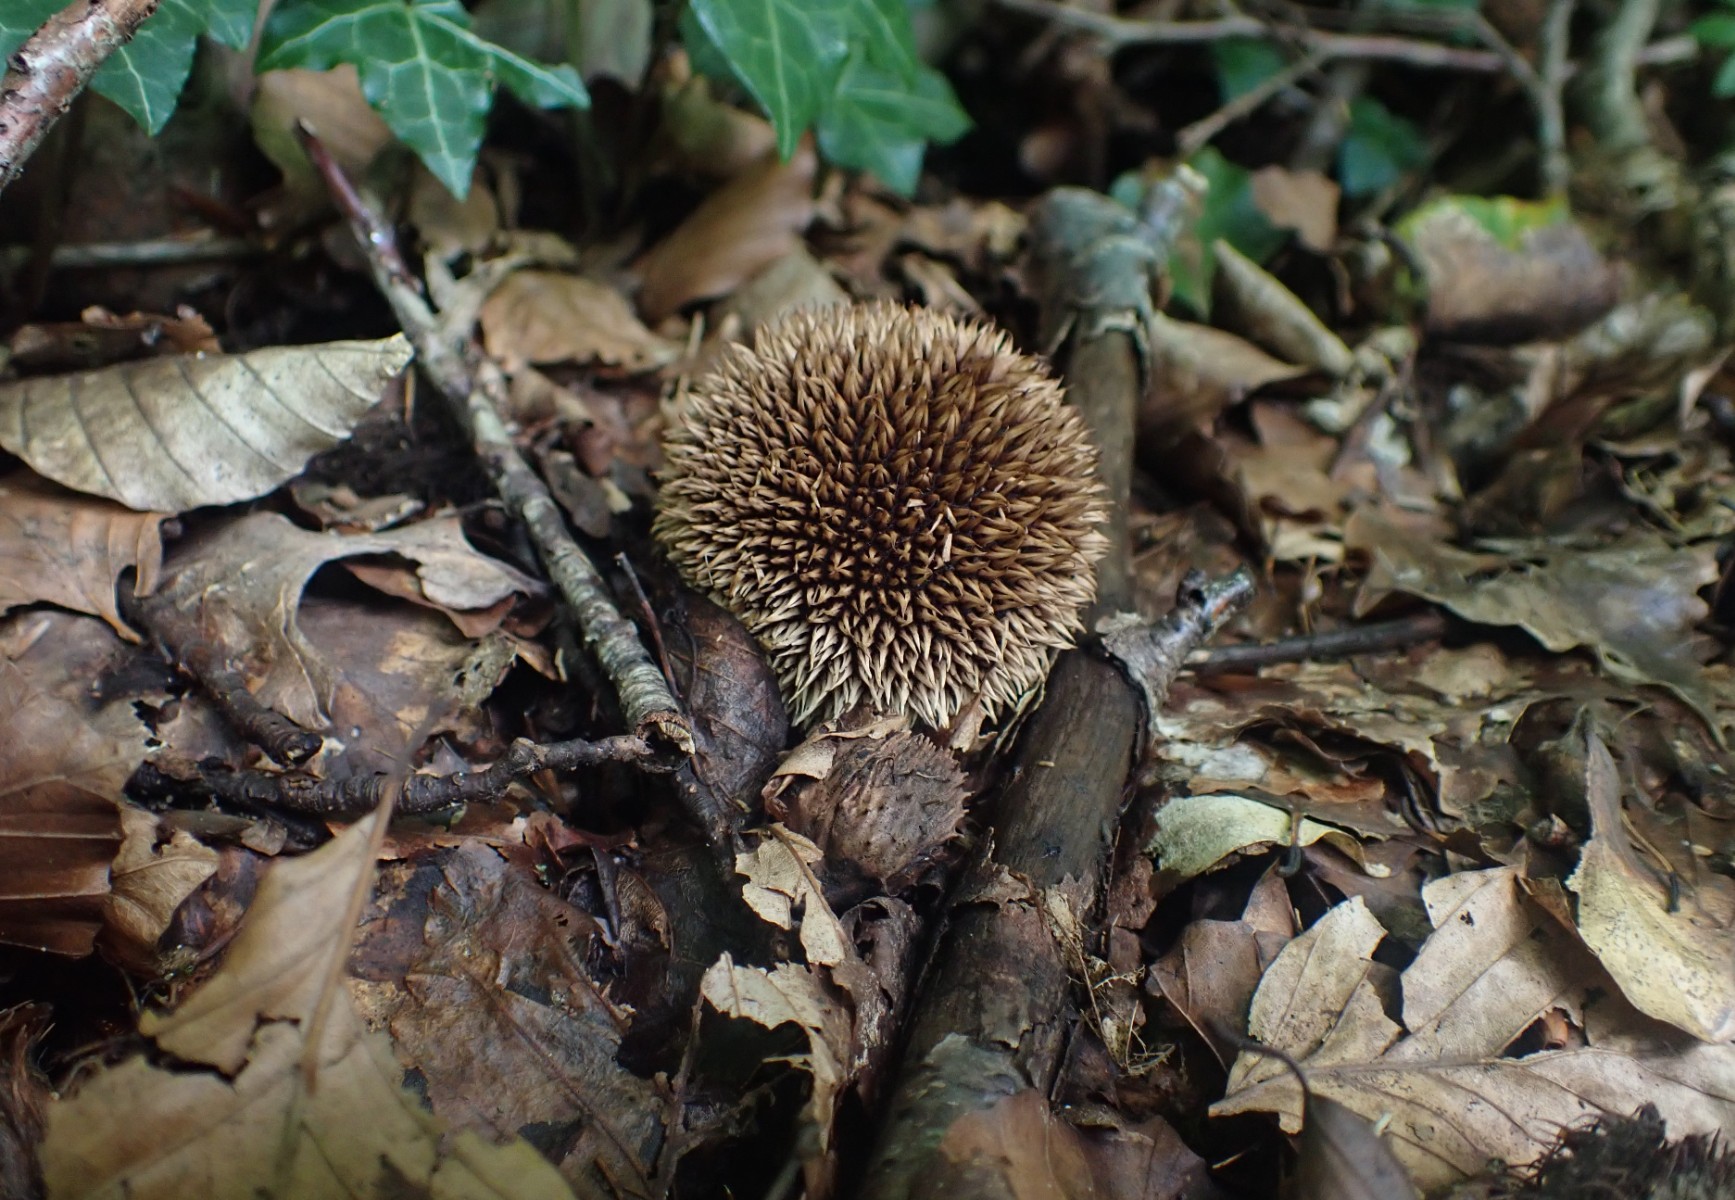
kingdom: Fungi
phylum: Basidiomycota
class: Agaricomycetes
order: Agaricales
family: Lycoperdaceae
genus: Lycoperdon
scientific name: Lycoperdon echinatum
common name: pindsvine-støvbold
